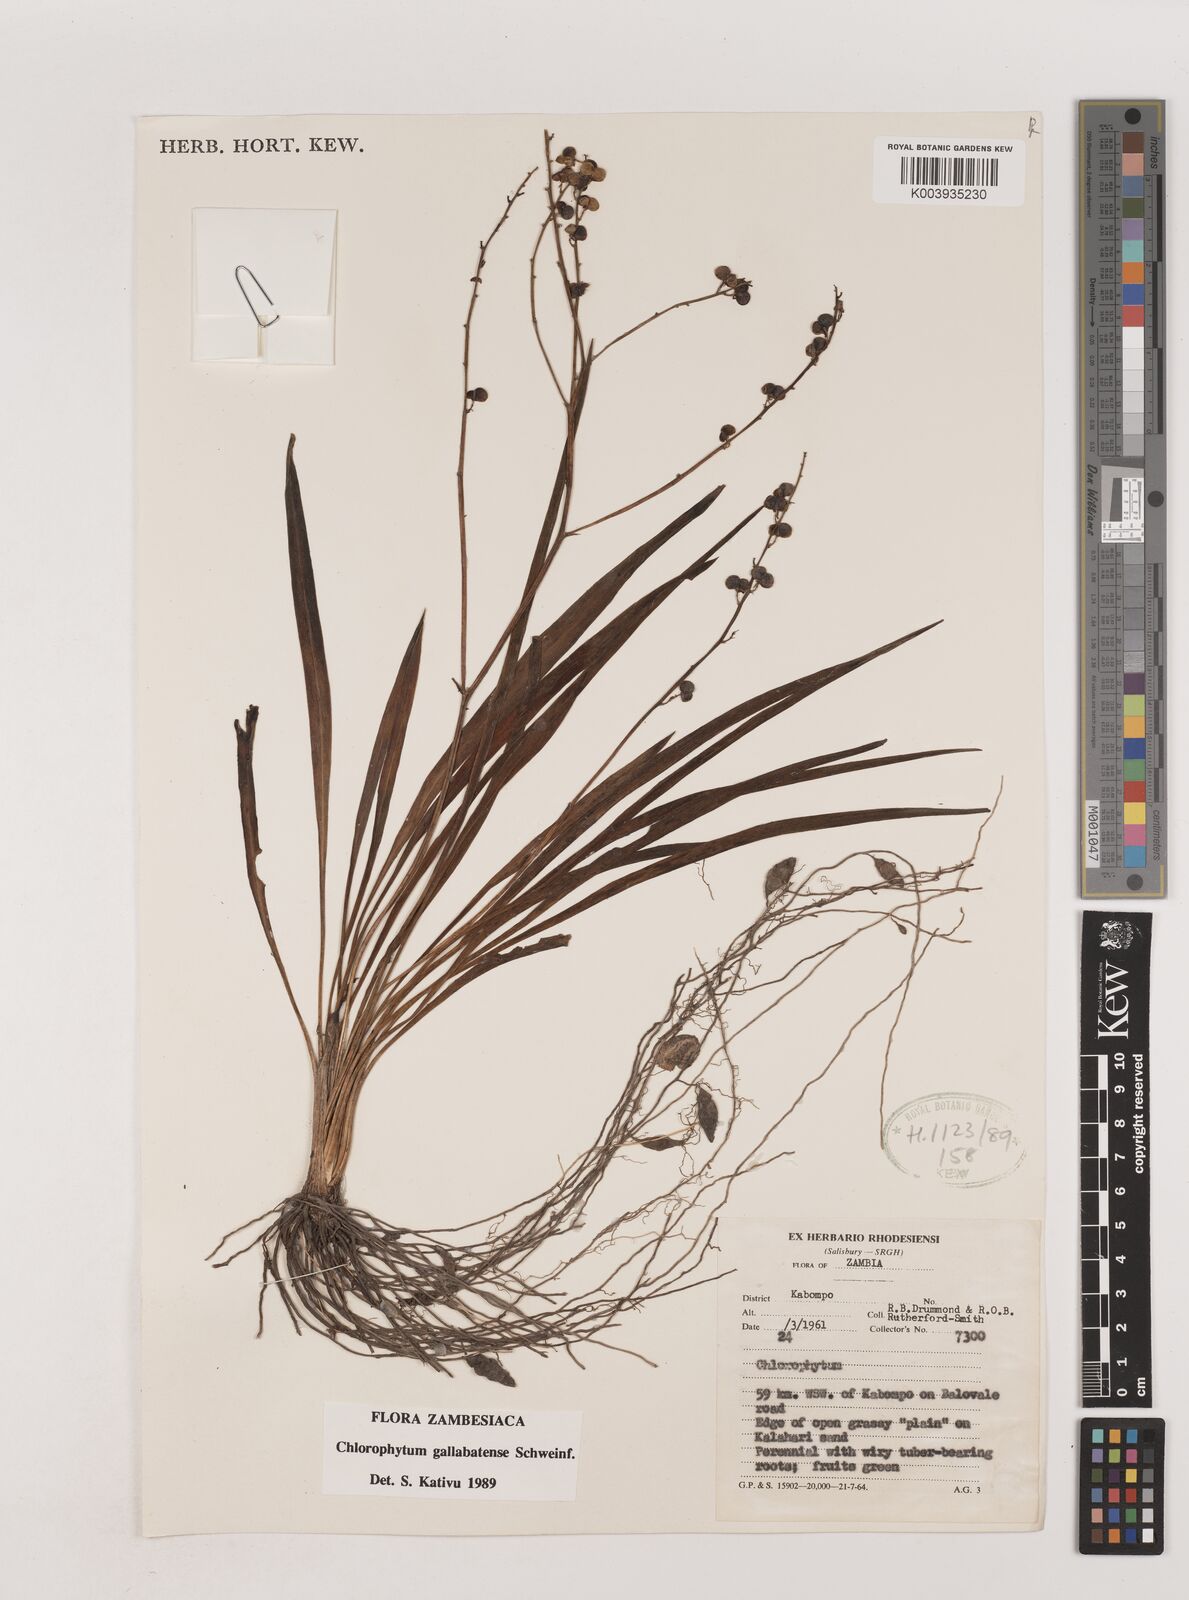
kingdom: Plantae
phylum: Tracheophyta
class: Liliopsida
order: Asparagales
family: Asparagaceae
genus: Chlorophytum
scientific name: Chlorophytum gallabatense
